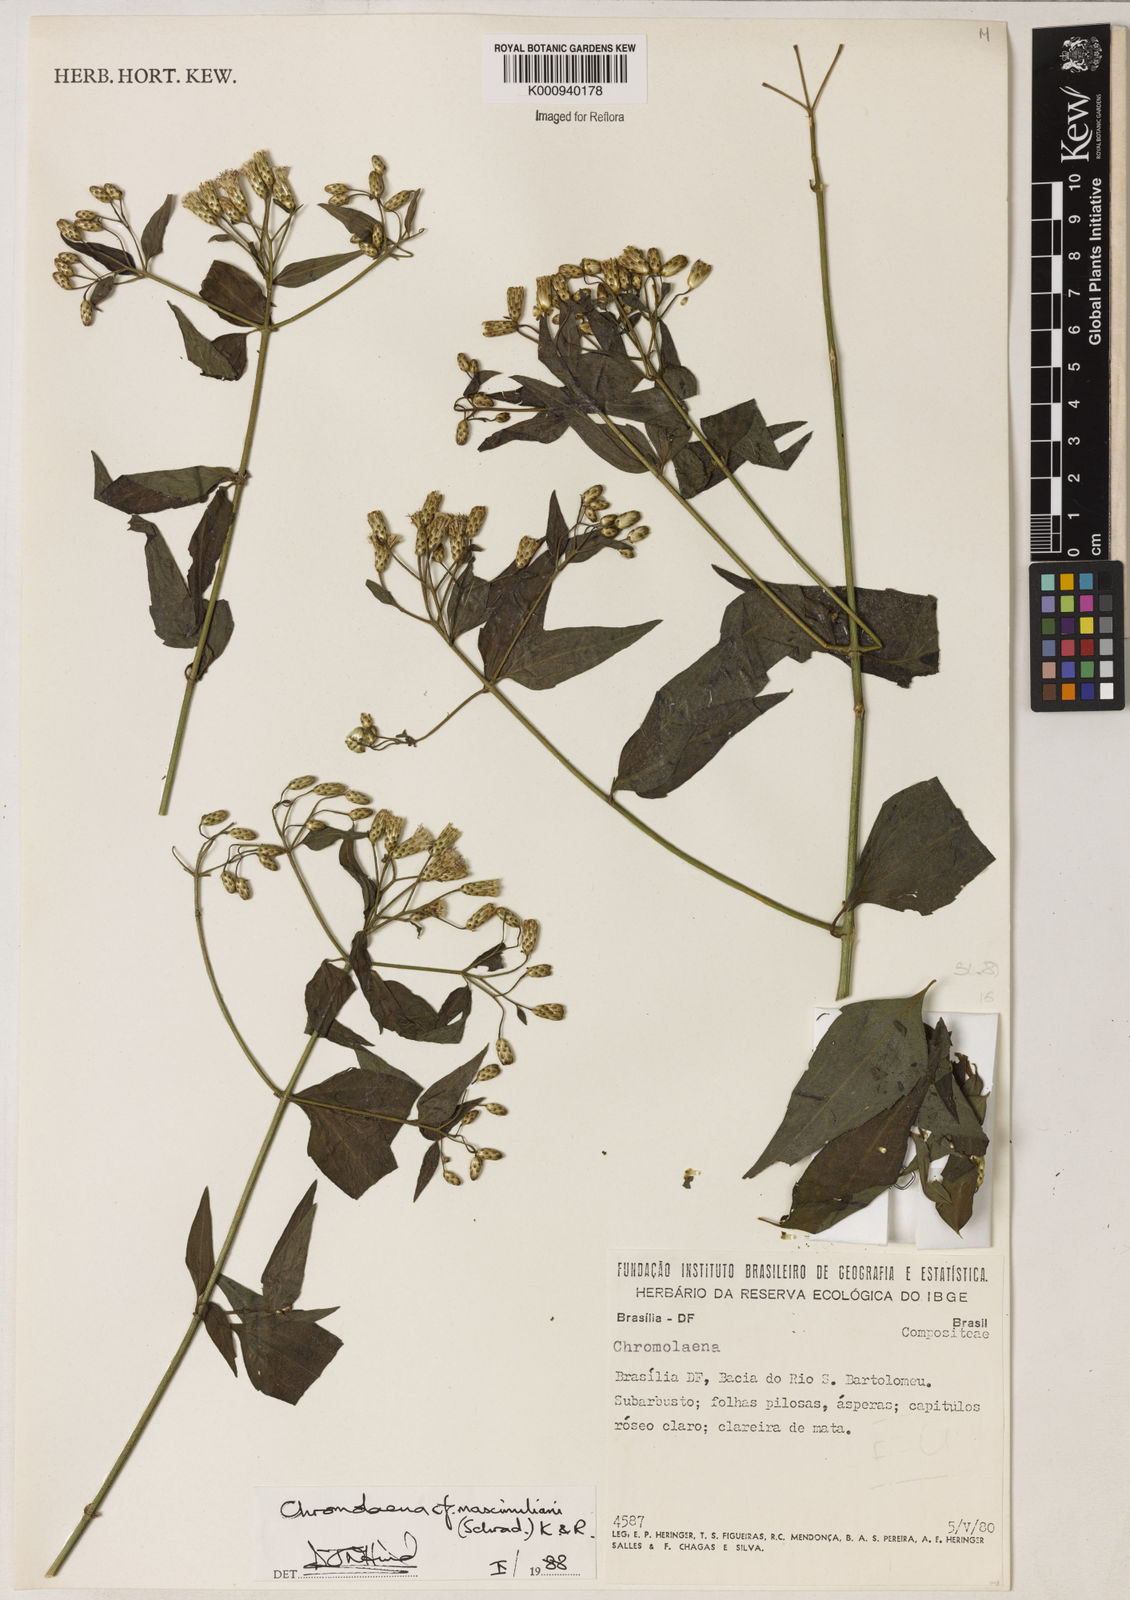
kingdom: Plantae
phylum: Tracheophyta
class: Magnoliopsida
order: Asterales
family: Asteraceae
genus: Chromolaena
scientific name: Chromolaena maximiliani
